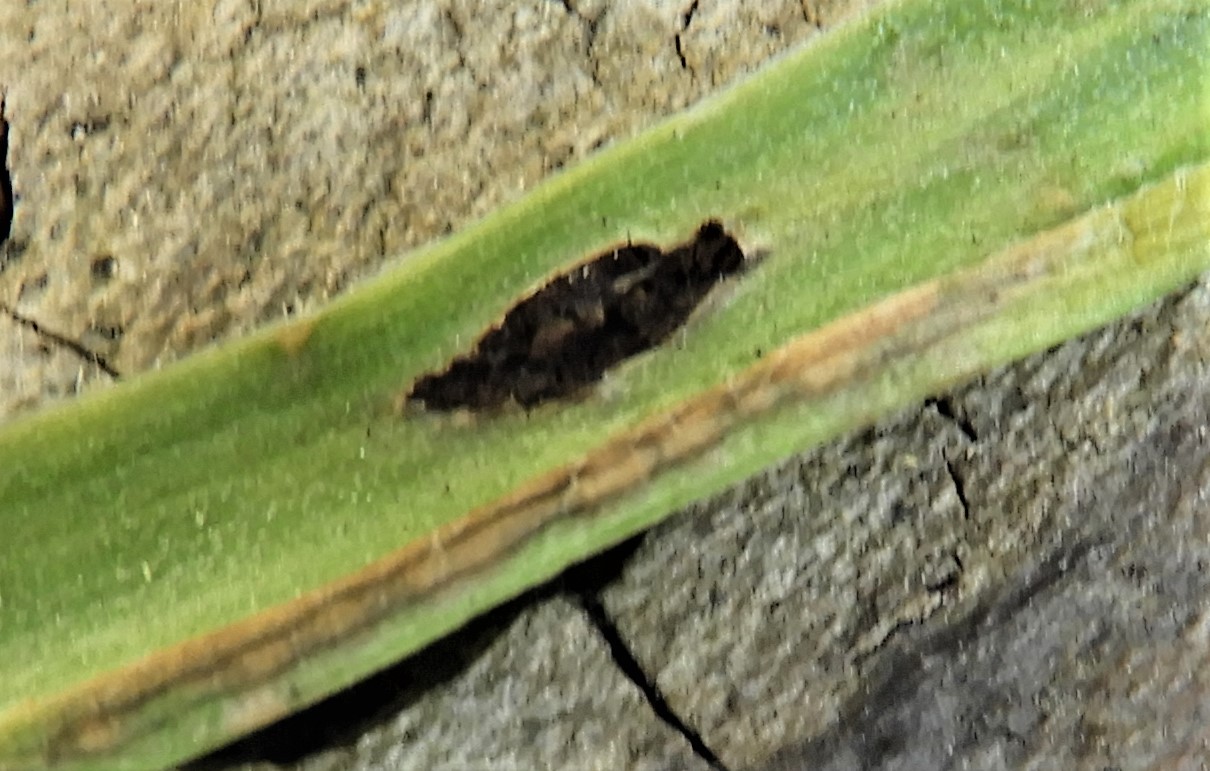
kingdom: Fungi
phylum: Basidiomycota
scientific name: Basidiomycota
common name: basidiesvampe
